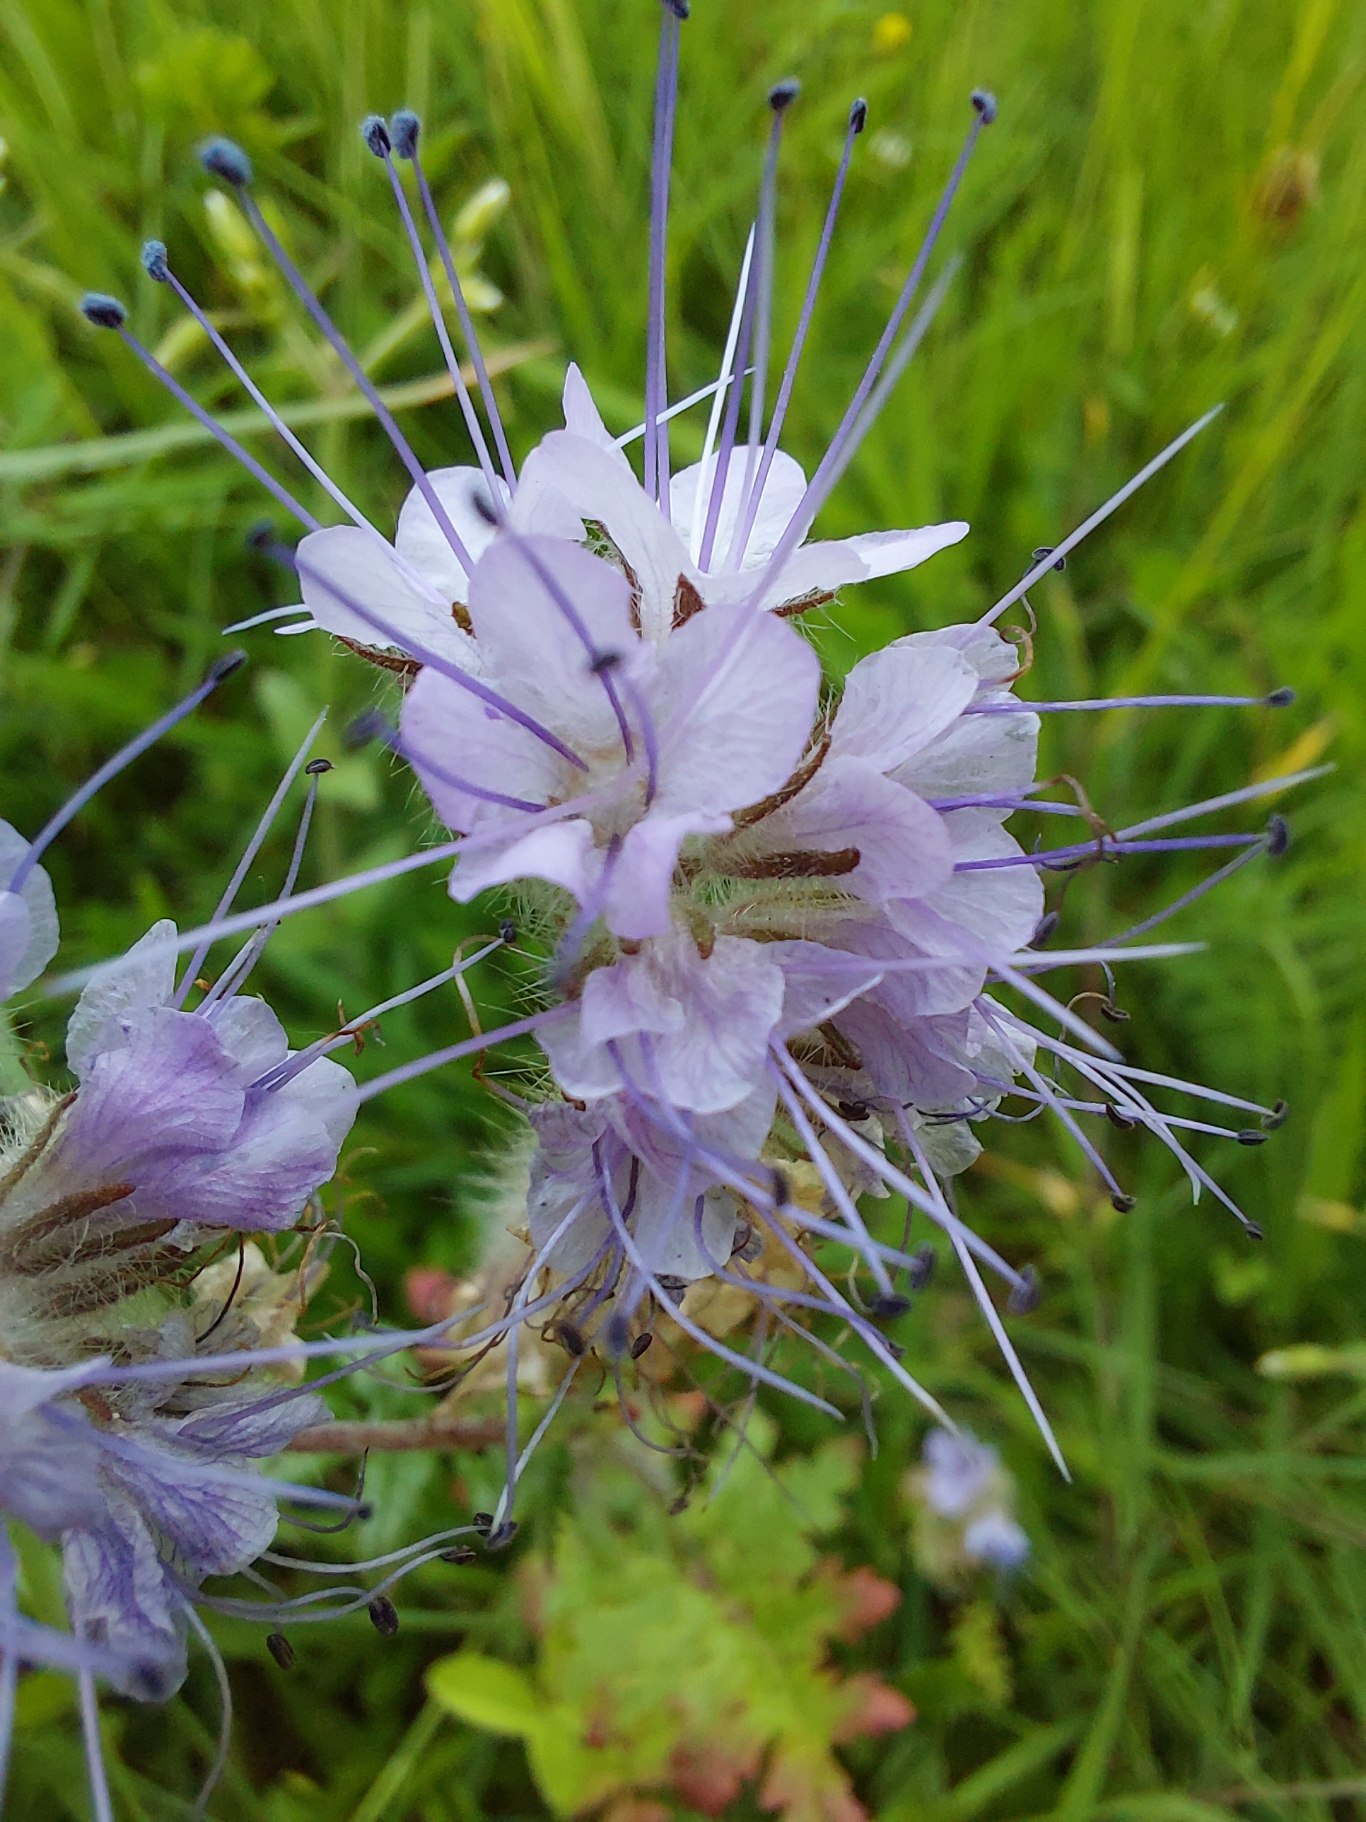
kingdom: Plantae
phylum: Tracheophyta
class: Magnoliopsida
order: Boraginales
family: Hydrophyllaceae
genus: Phacelia
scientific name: Phacelia tanacetifolia
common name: Honningurt
